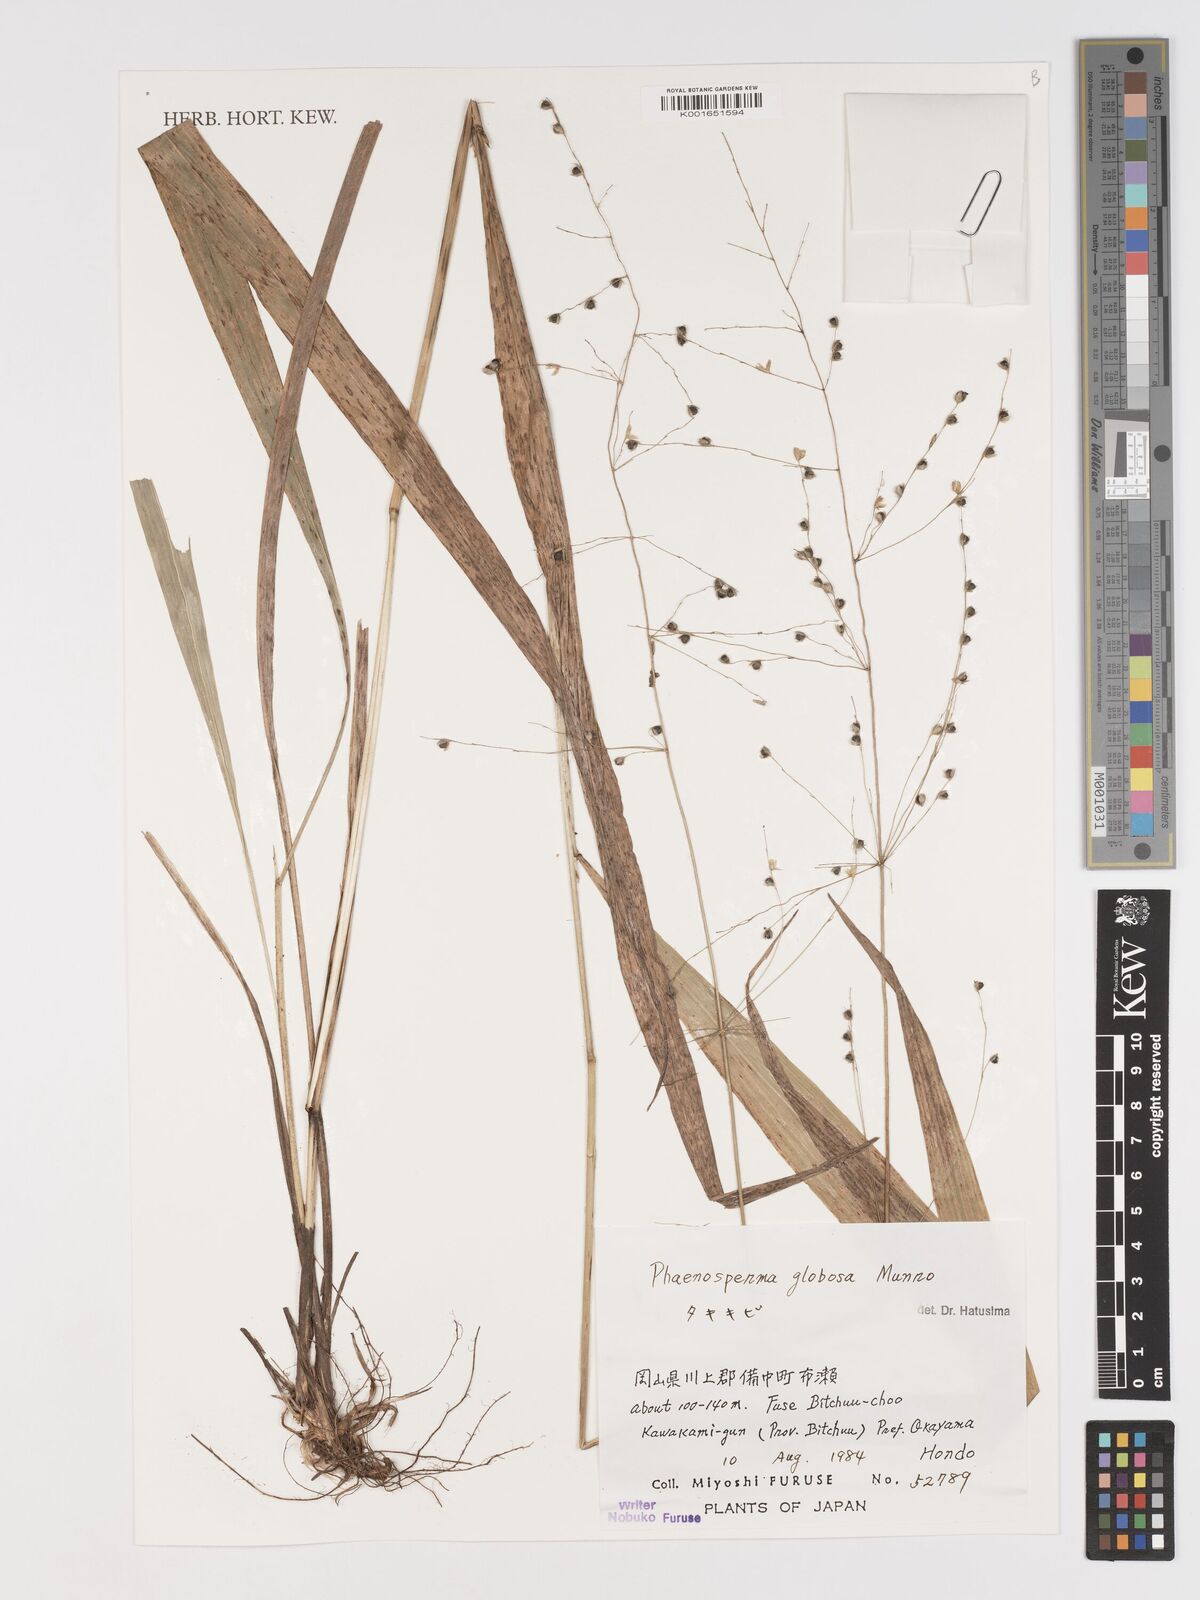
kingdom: Plantae
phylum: Tracheophyta
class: Liliopsida
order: Poales
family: Poaceae
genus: Phaenosperma
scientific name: Phaenosperma globosum
